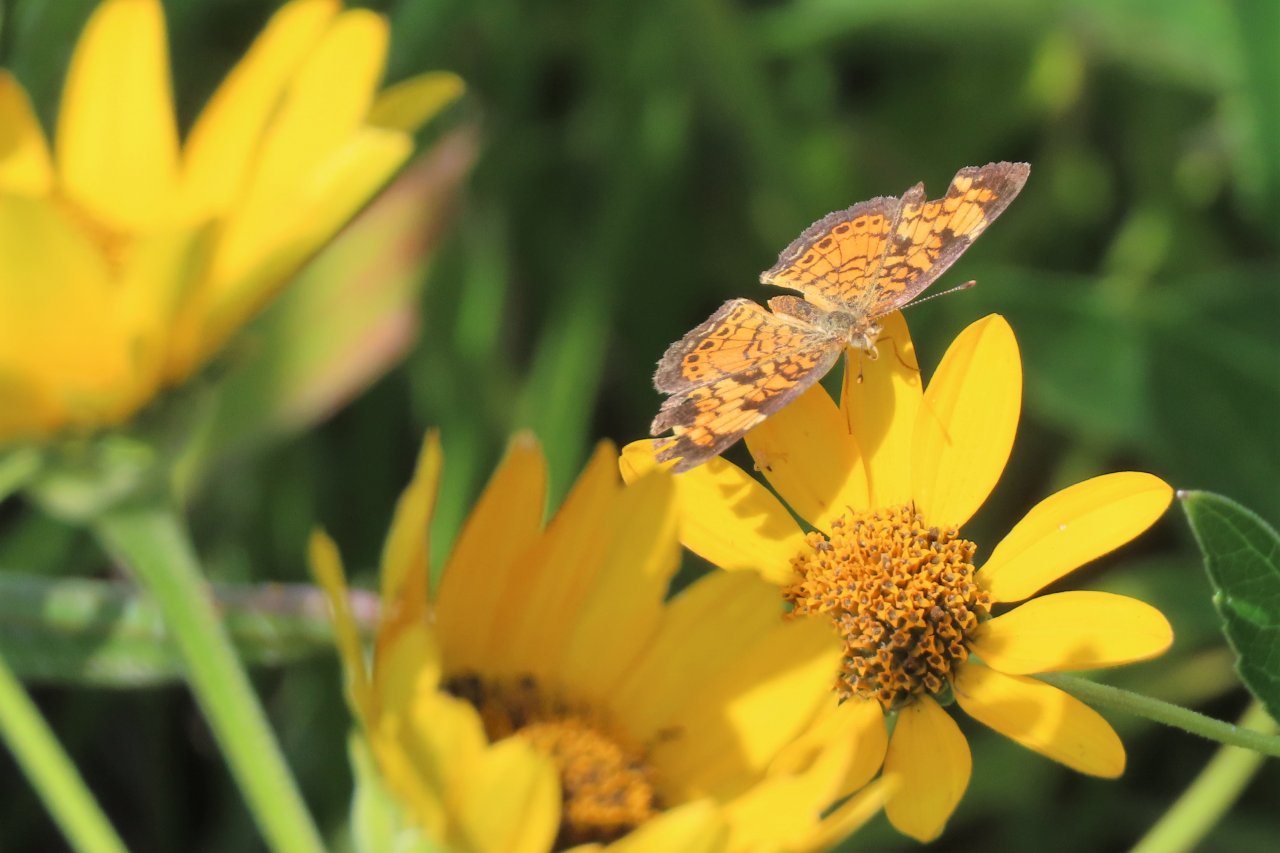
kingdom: Animalia
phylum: Arthropoda
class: Insecta
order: Lepidoptera
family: Nymphalidae
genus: Phyciodes
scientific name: Phyciodes tharos
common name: Pearl Crescent
